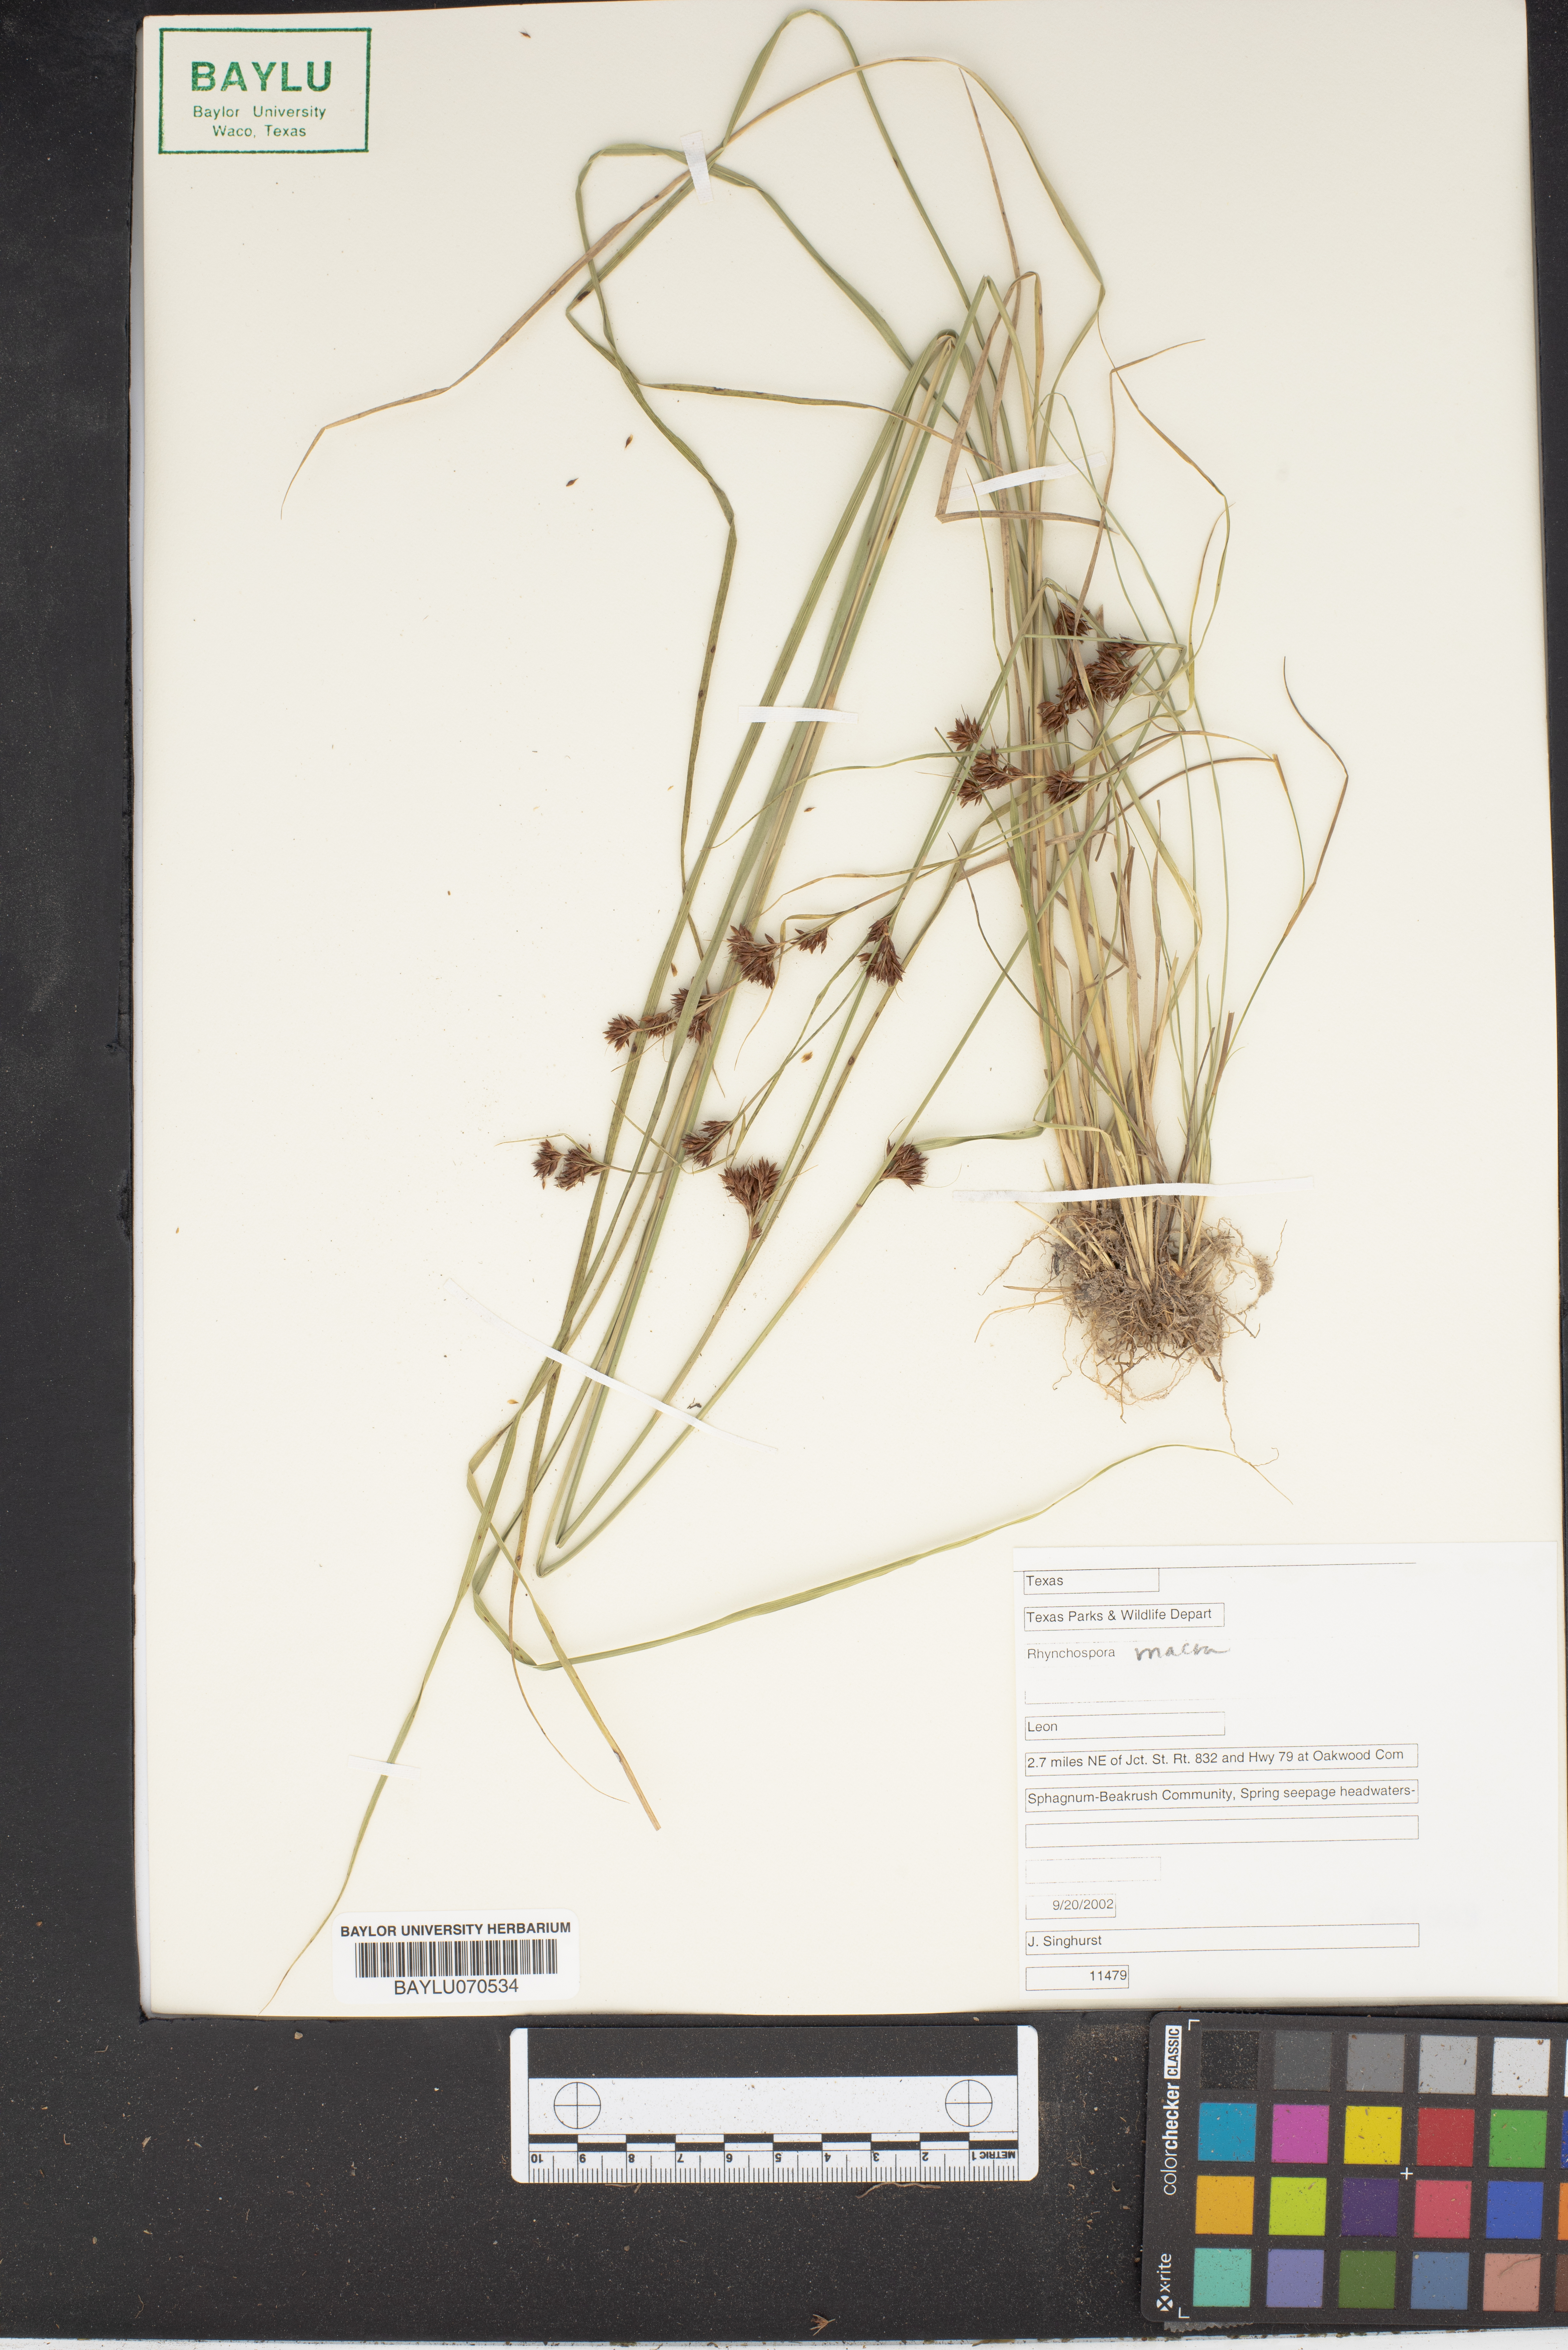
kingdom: Plantae
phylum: Tracheophyta
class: Liliopsida
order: Poales
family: Cyperaceae
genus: Rhynchospora
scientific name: Rhynchospora macra
